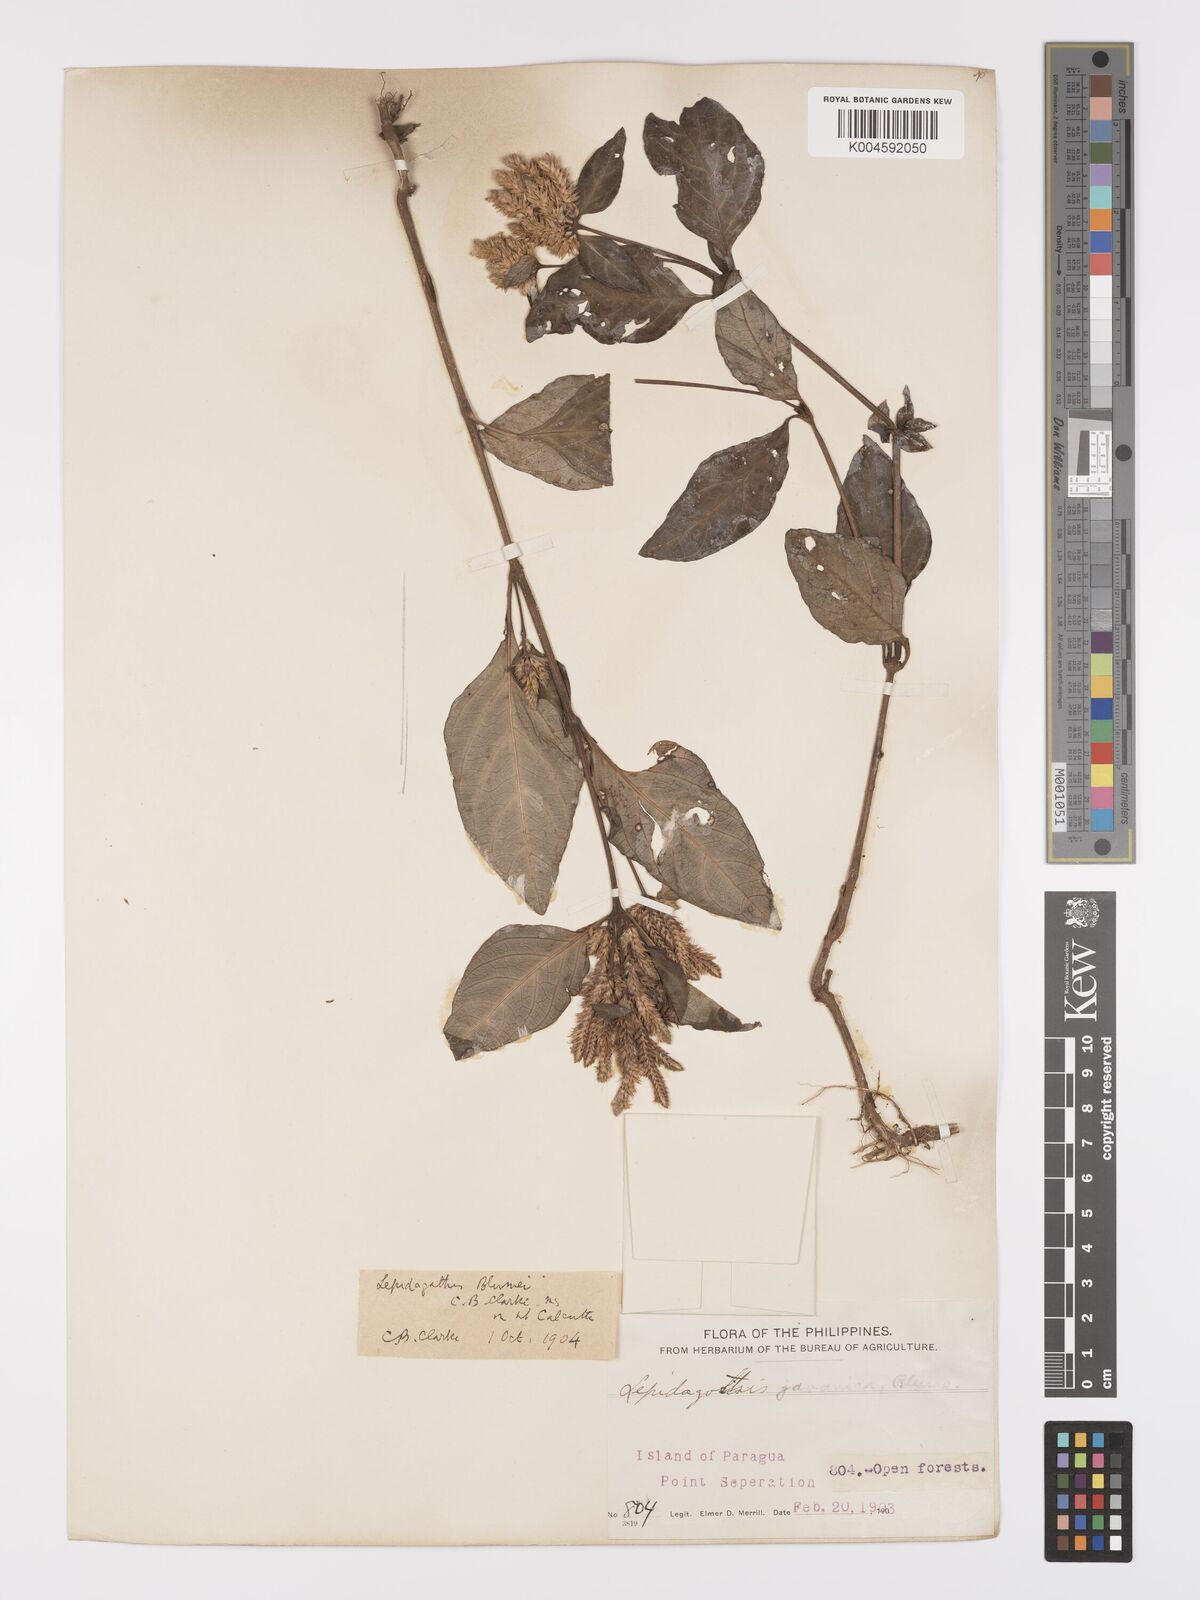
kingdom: Plantae
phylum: Tracheophyta
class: Magnoliopsida
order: Lamiales
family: Acanthaceae
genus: Lepidagathis
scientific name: Lepidagathis
